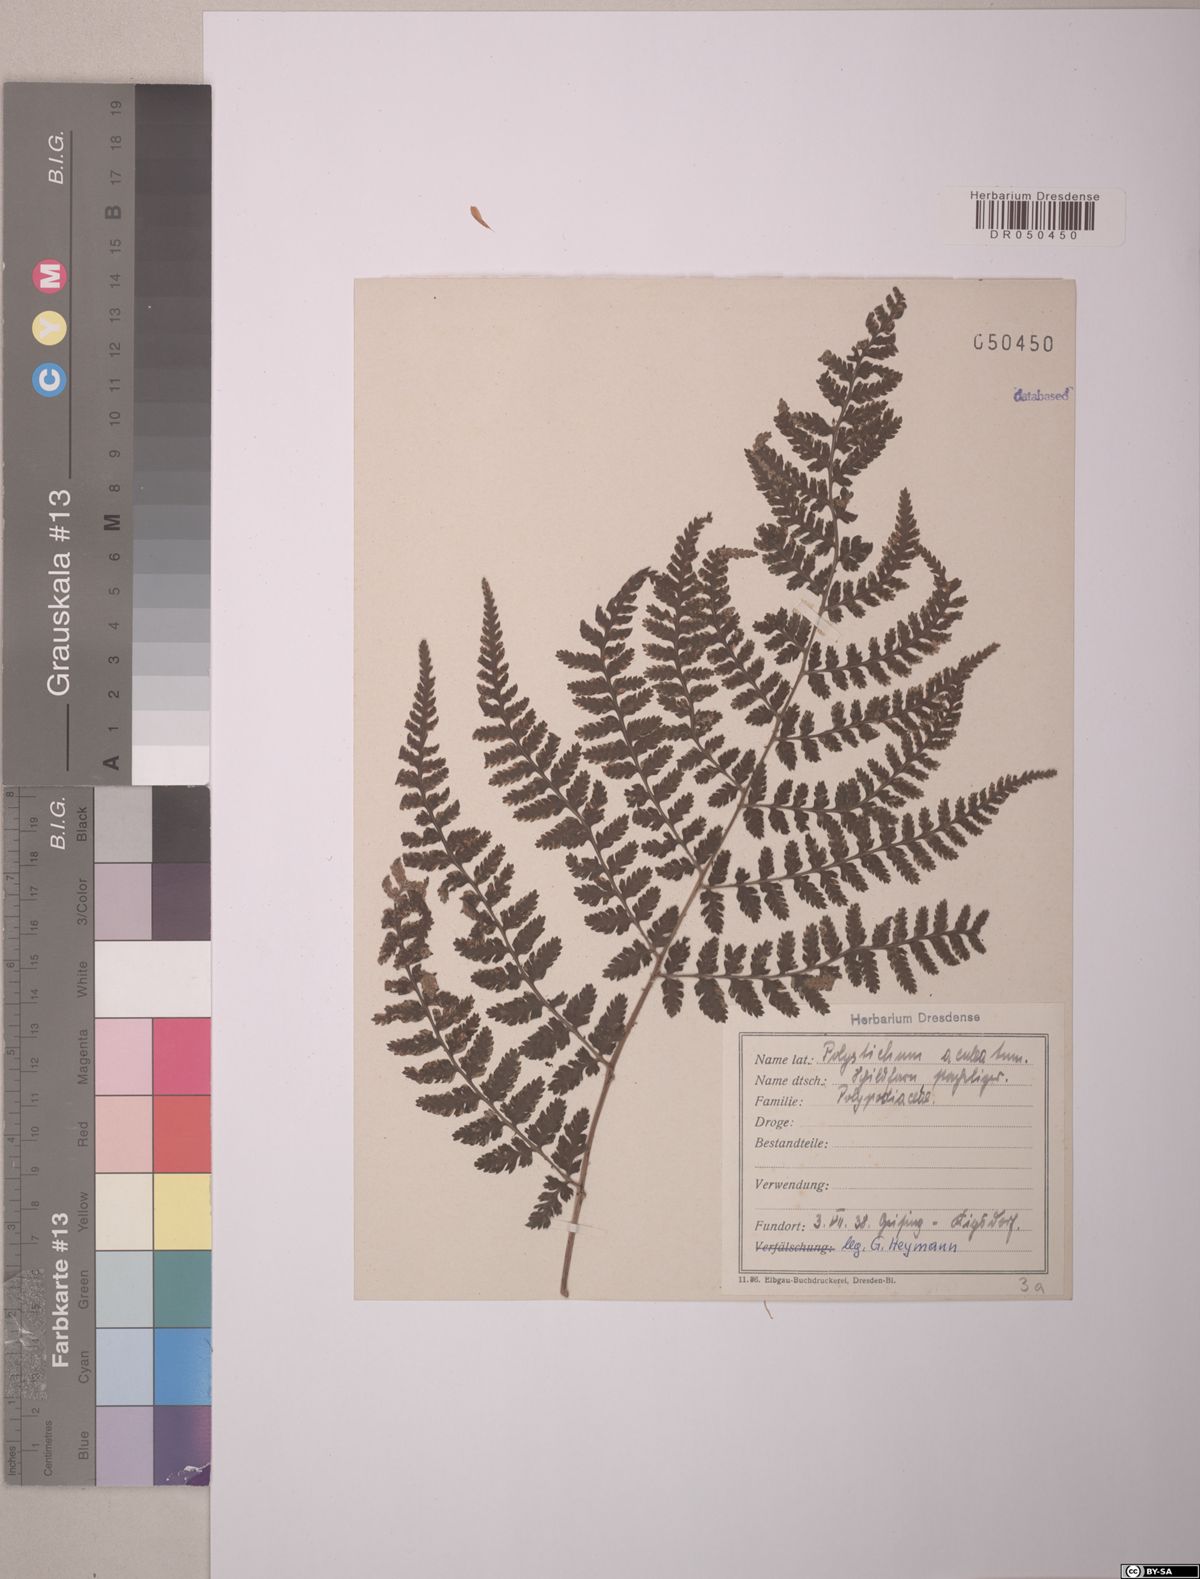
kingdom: Plantae
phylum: Tracheophyta
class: Polypodiopsida
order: Polypodiales
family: Dryopteridaceae
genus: Dryopteris
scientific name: Dryopteris dilatata
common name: Broad buckler-fern
